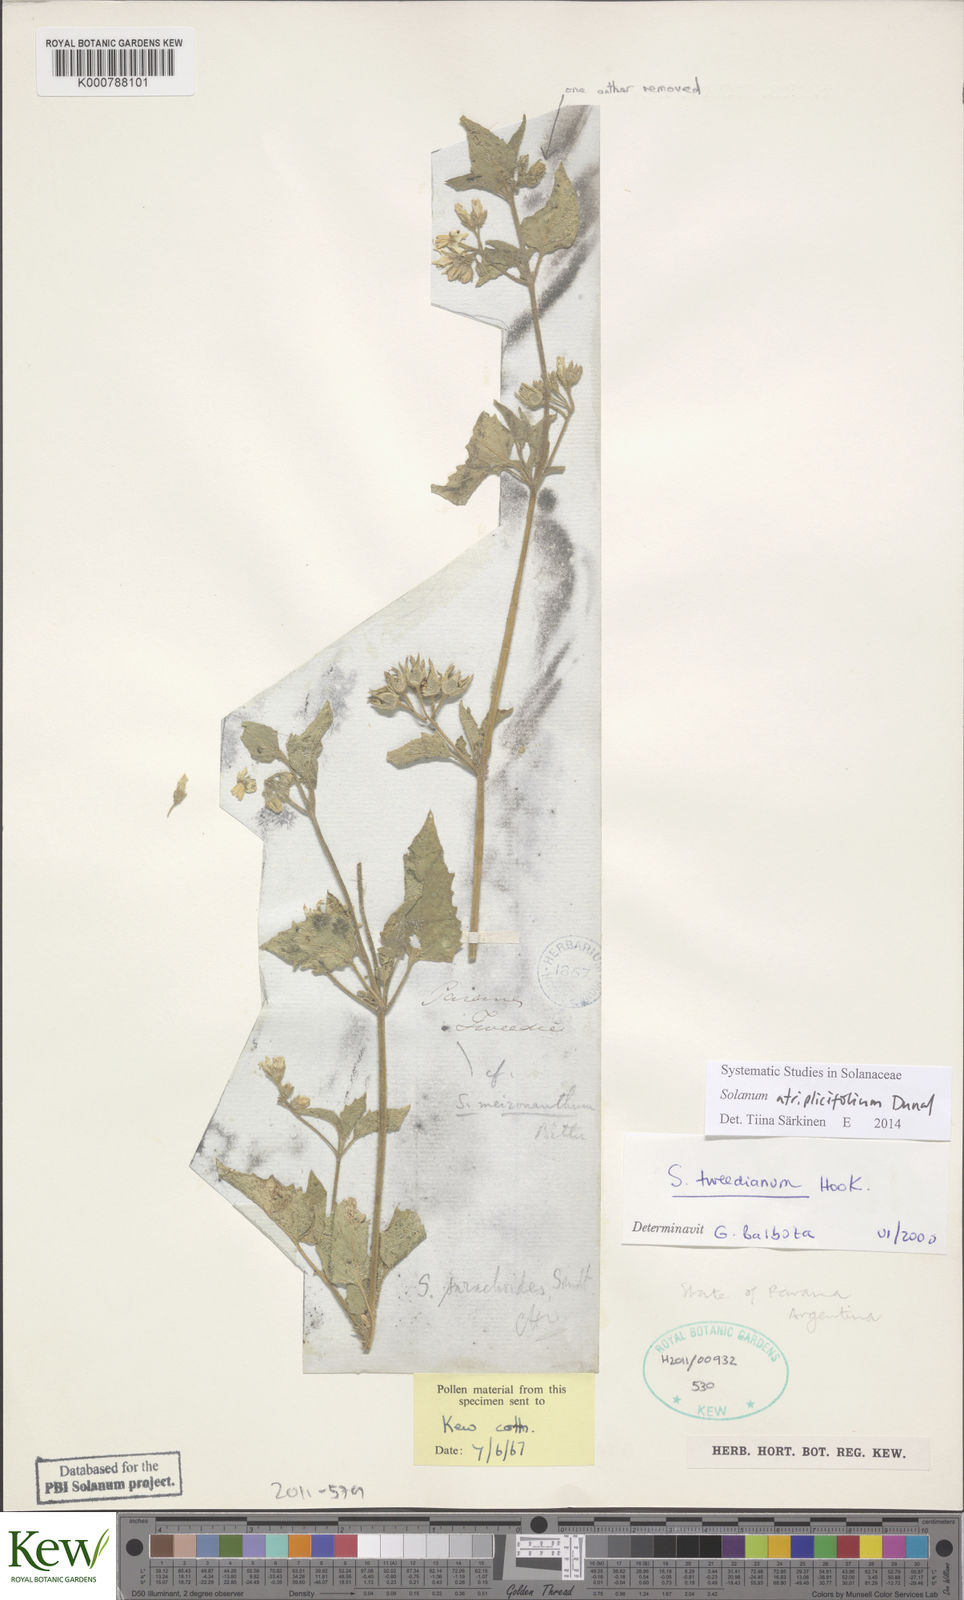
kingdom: Plantae
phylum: Tracheophyta
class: Magnoliopsida
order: Solanales
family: Solanaceae
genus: Solanum
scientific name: Solanum physalidicalyx
